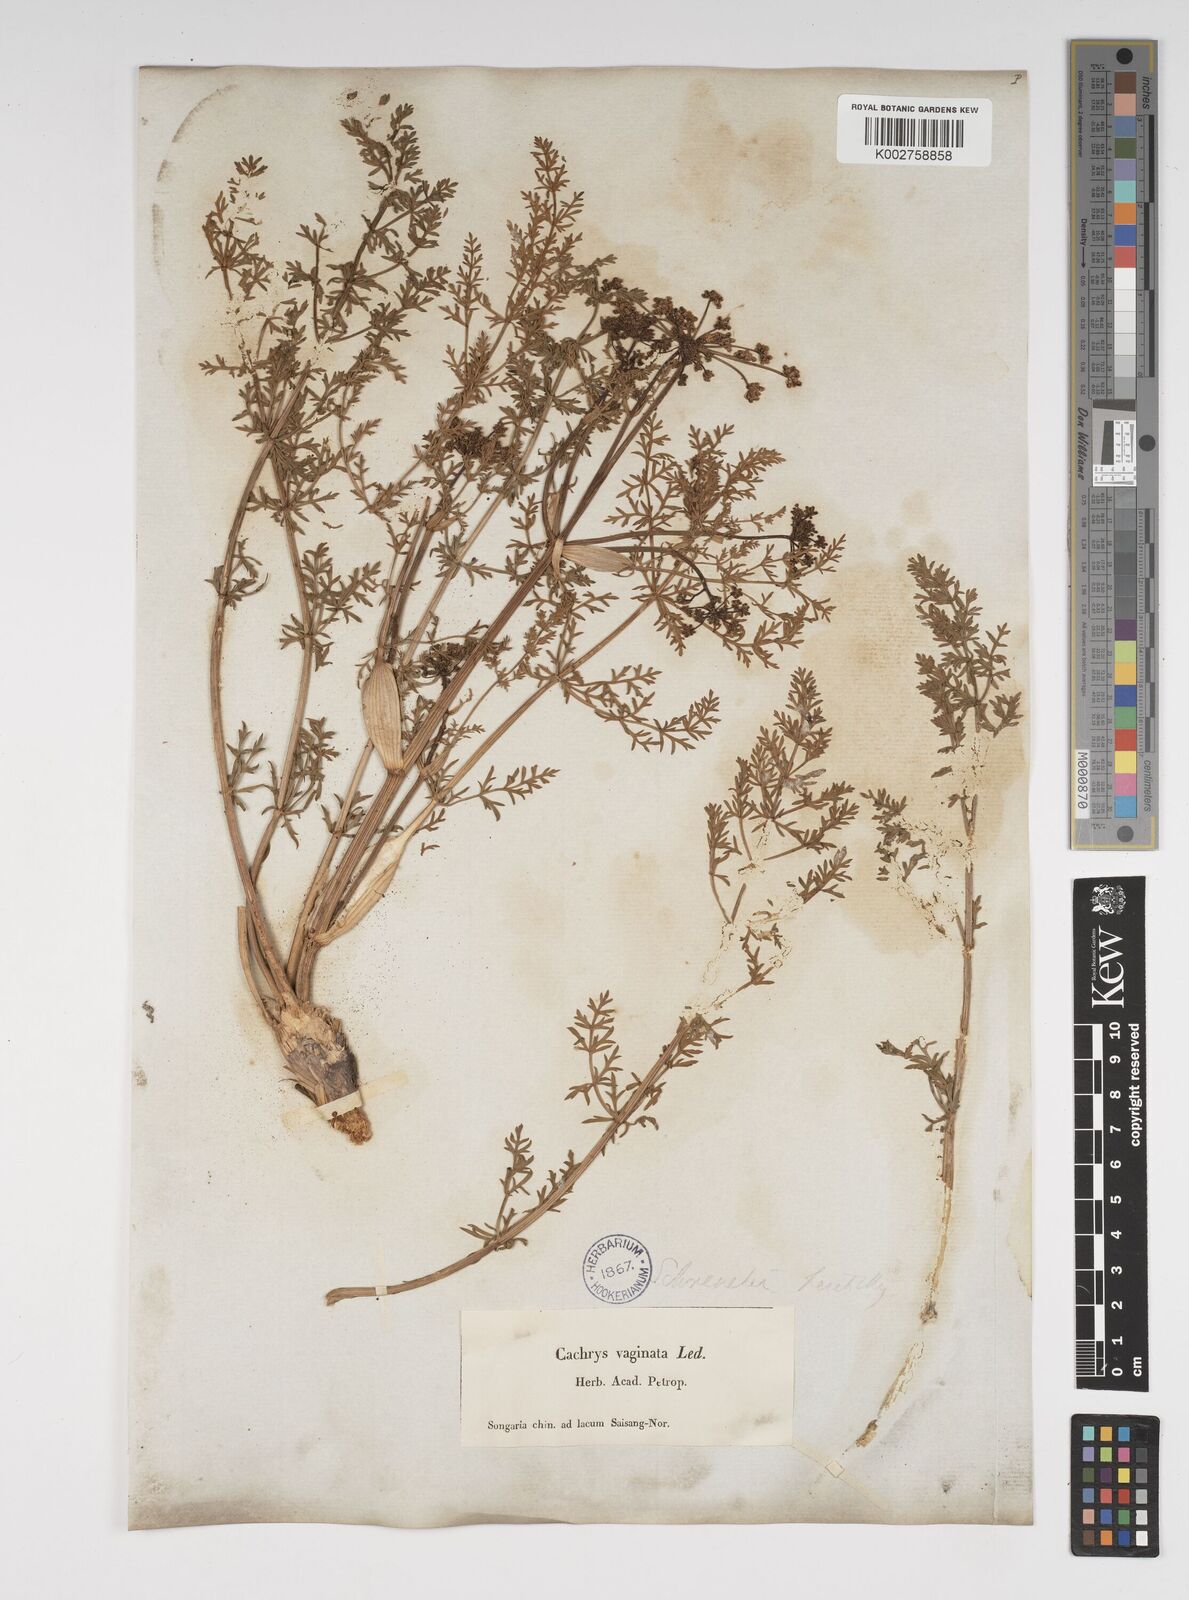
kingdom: Plantae
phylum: Tracheophyta
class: Magnoliopsida
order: Apiales
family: Apiaceae
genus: Cachrys
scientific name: Cachrys
